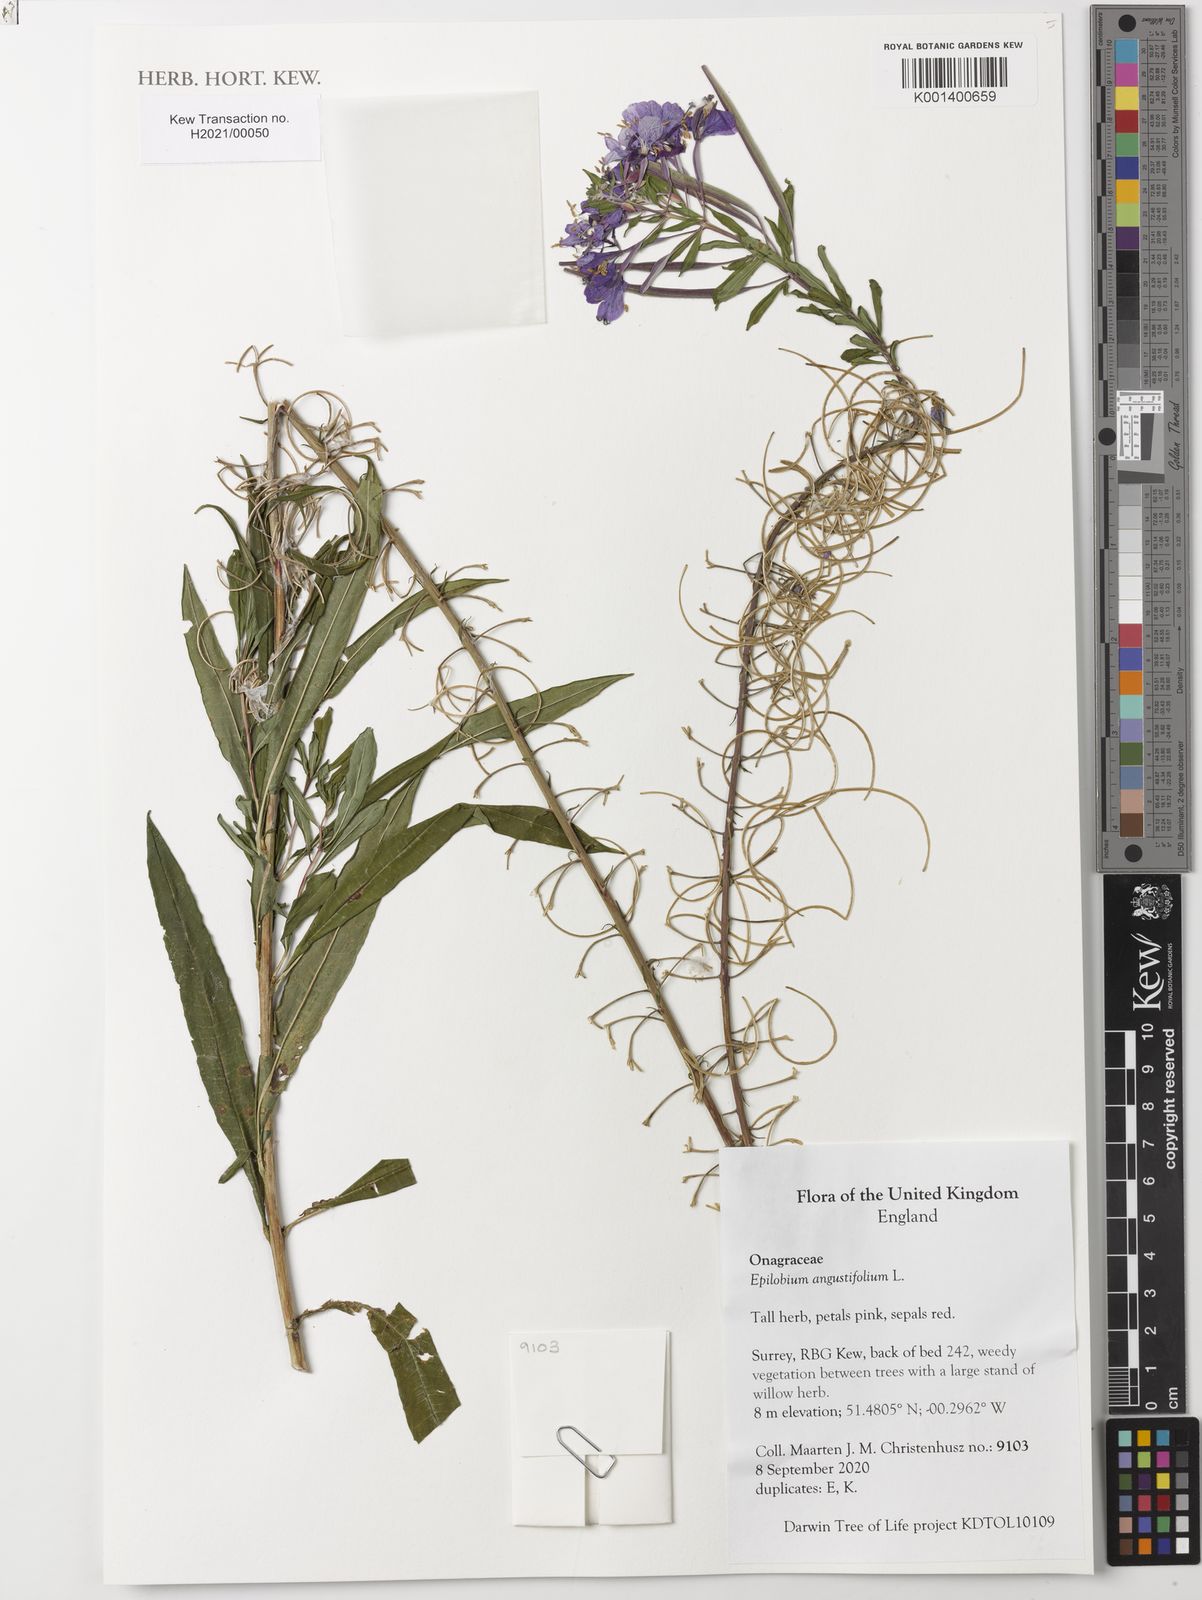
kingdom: Plantae
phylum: Tracheophyta
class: Magnoliopsida
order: Myrtales
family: Onagraceae
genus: Chamaenerion
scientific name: Chamaenerion angustifolium
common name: Fireweed
